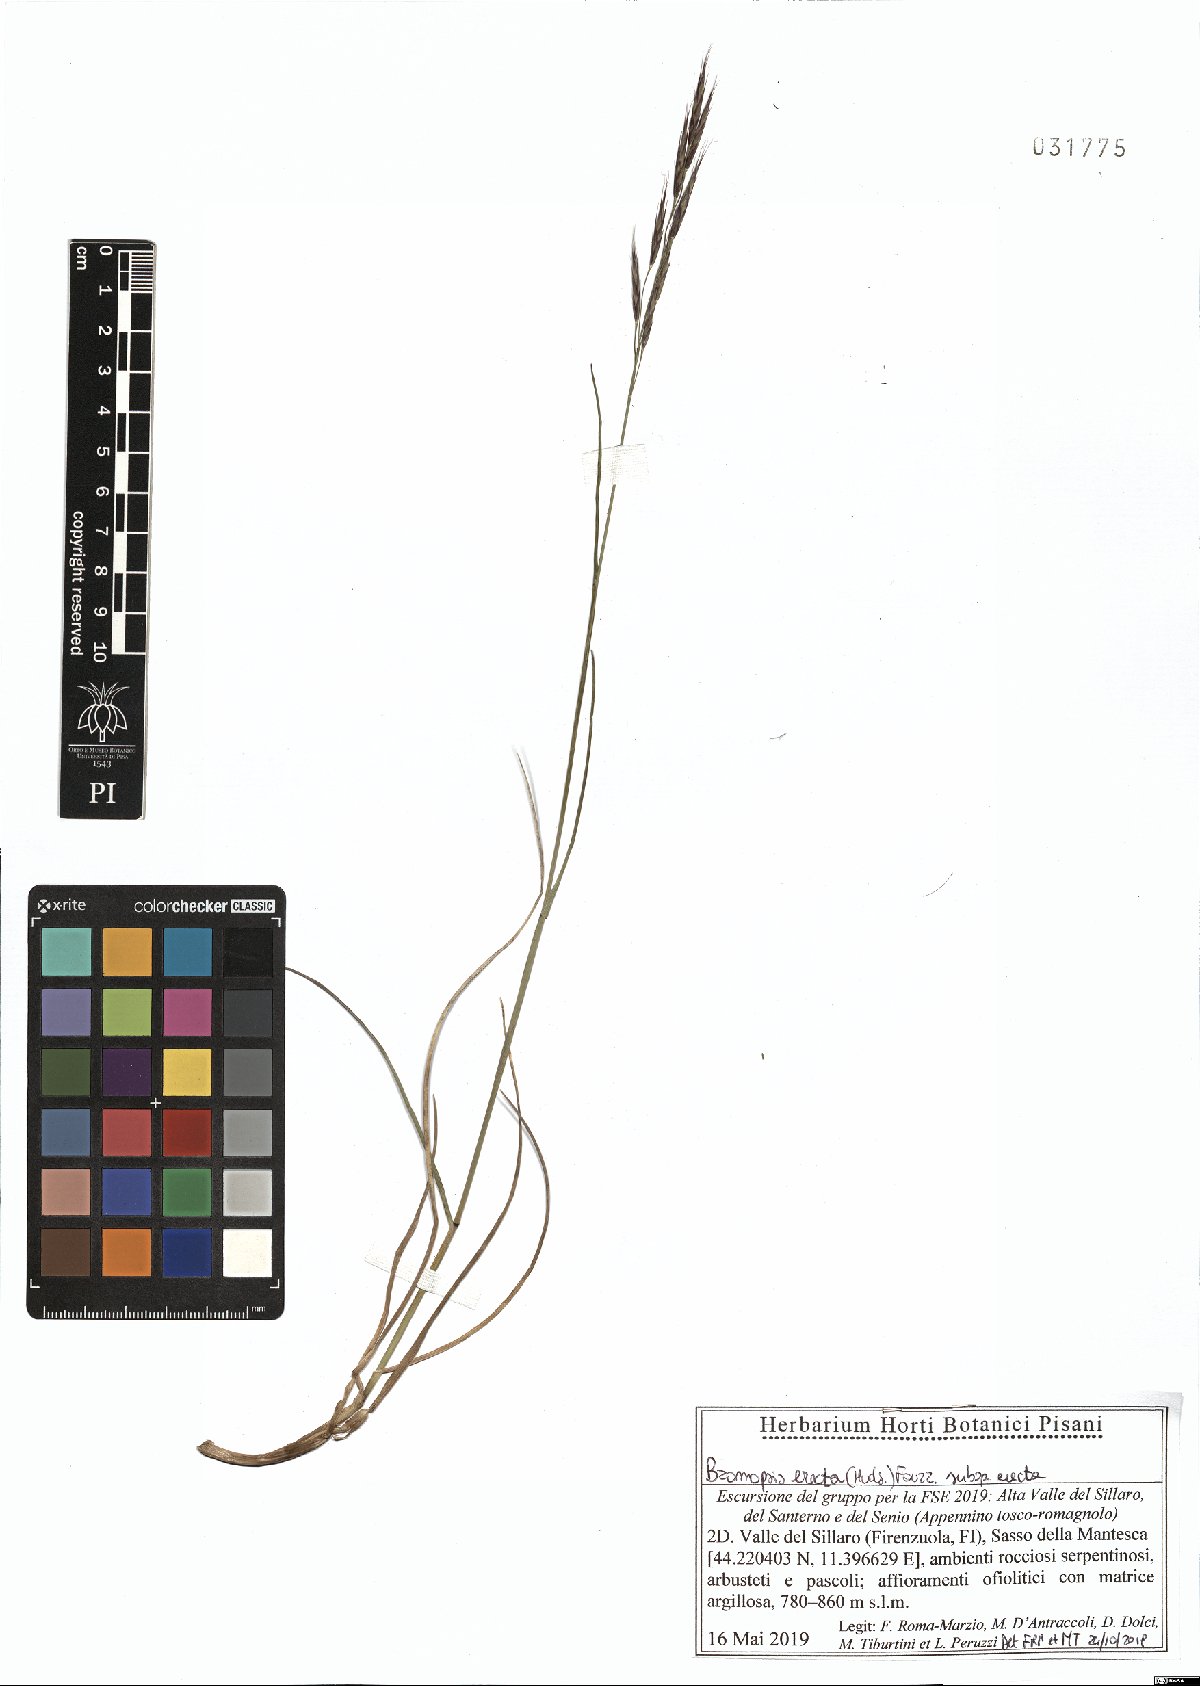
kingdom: Plantae
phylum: Tracheophyta
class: Liliopsida
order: Poales
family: Poaceae
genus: Bromus
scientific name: Bromus erectus
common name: Erect brome
